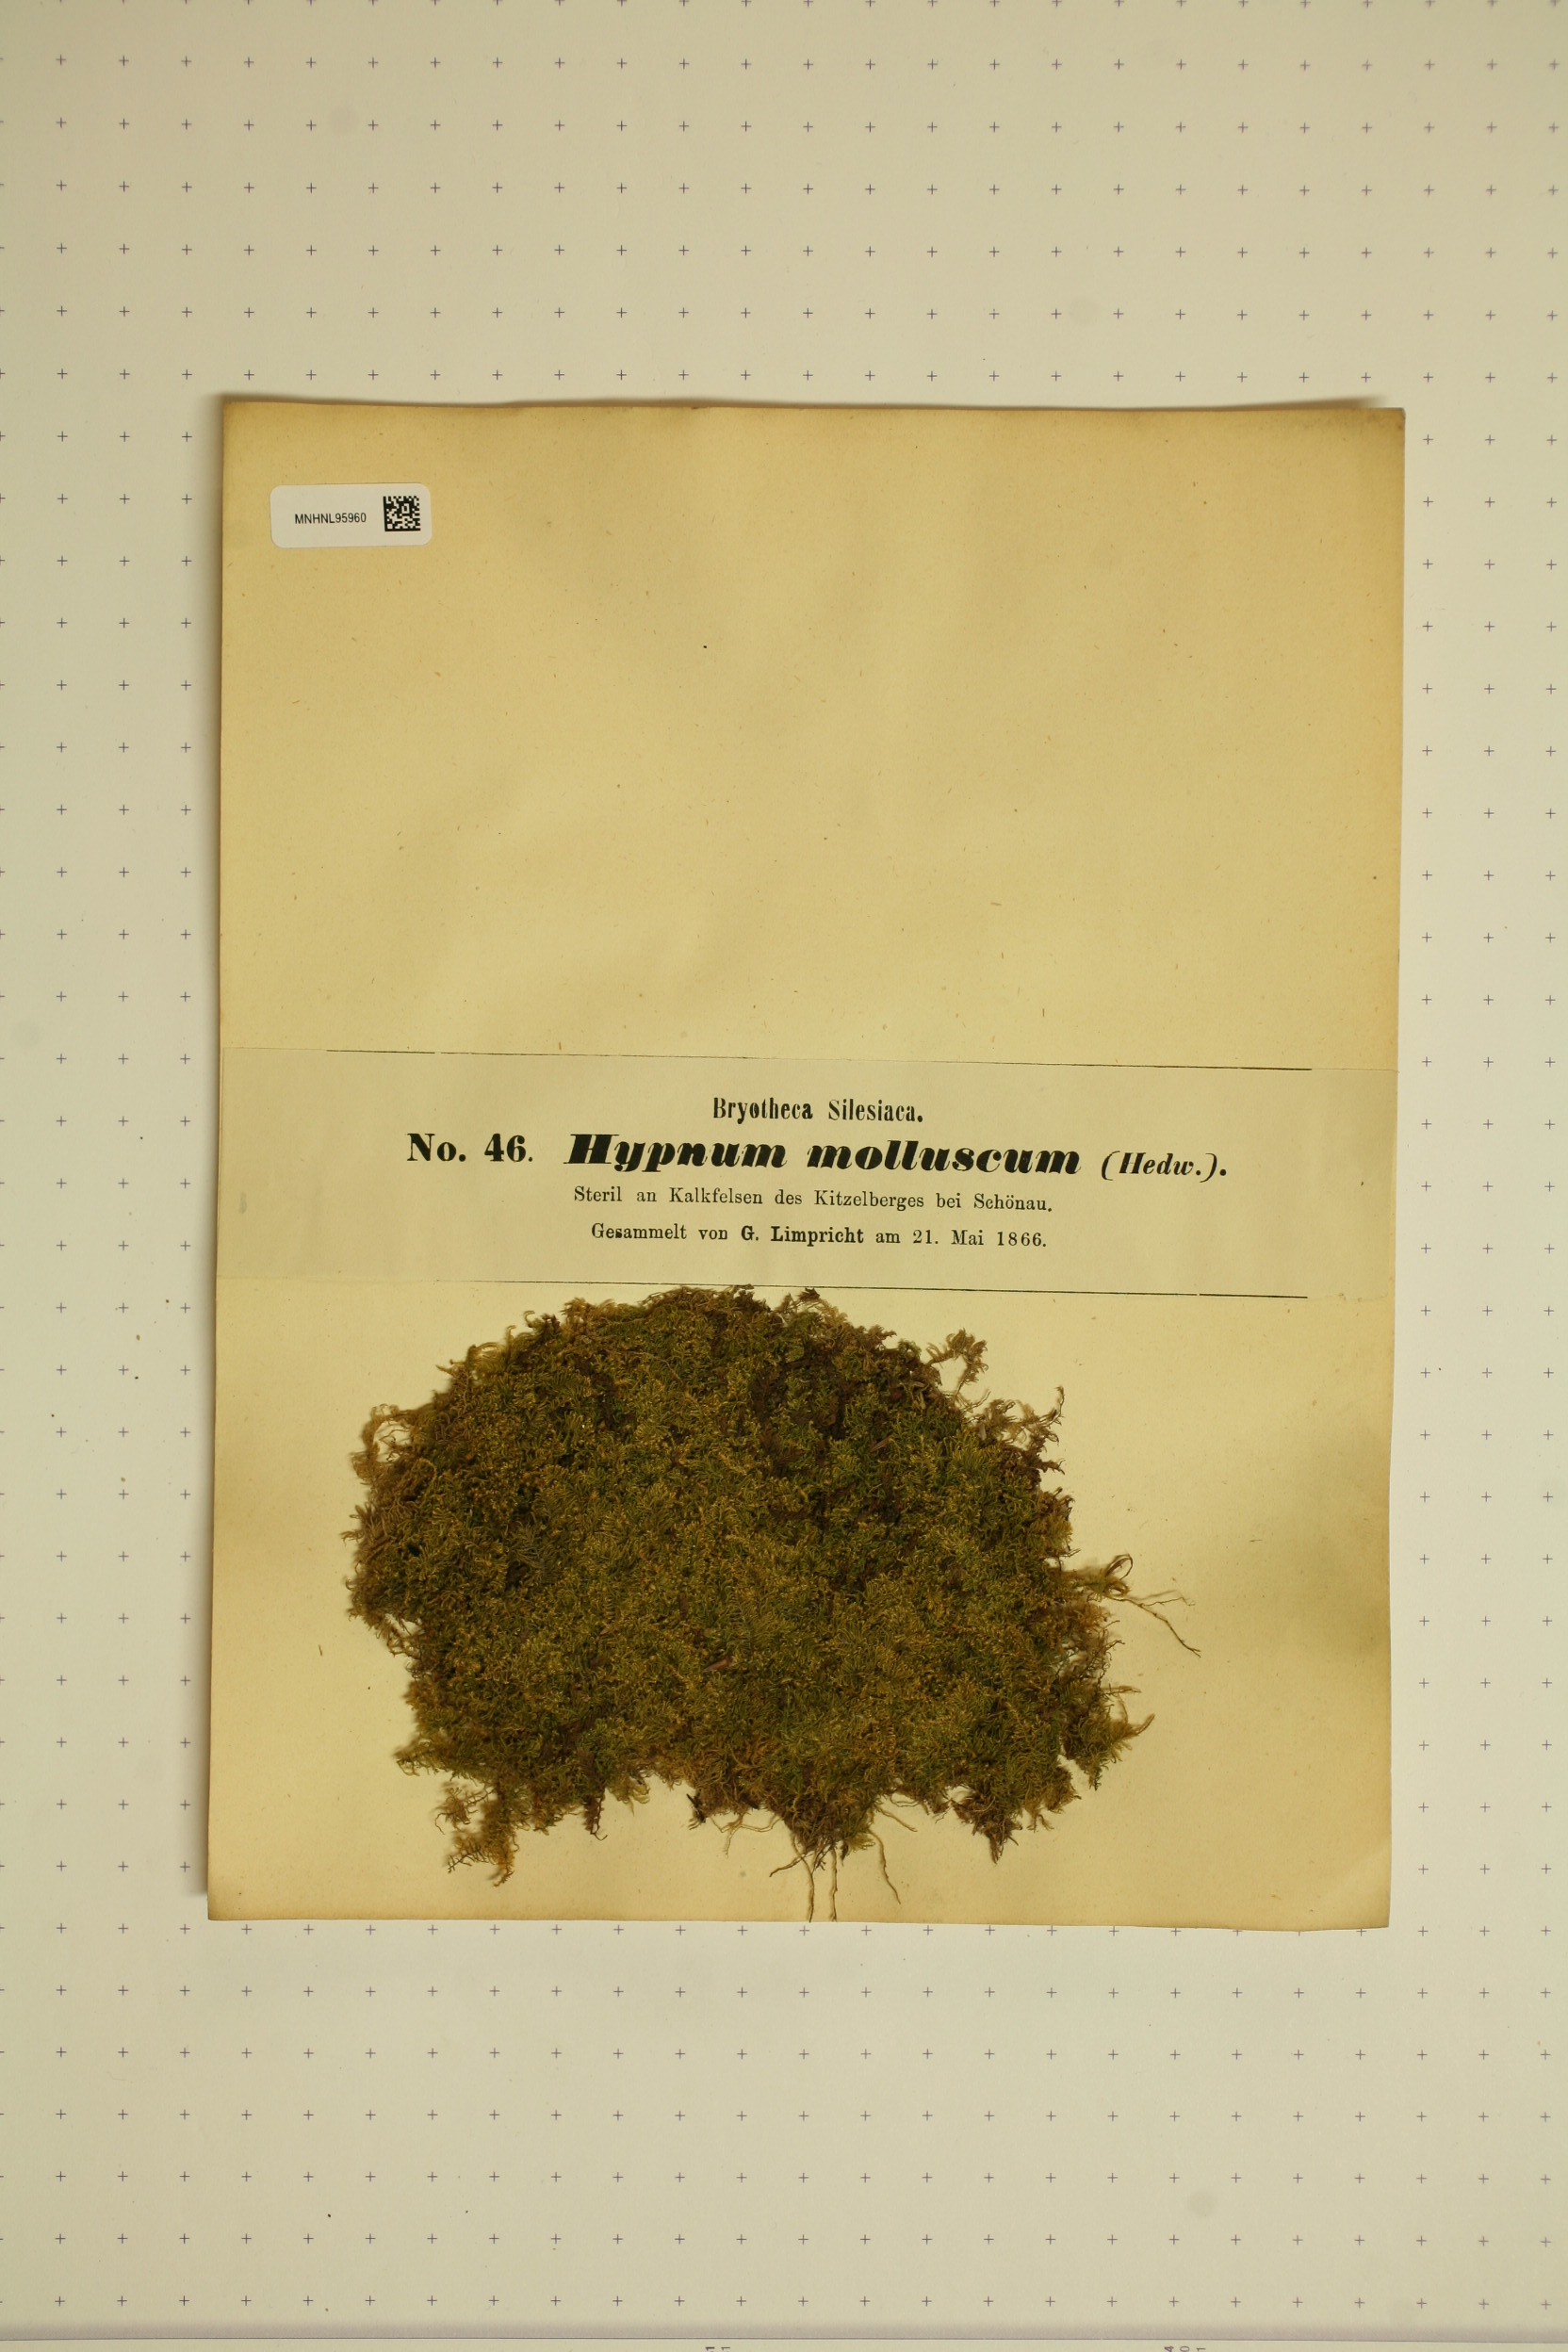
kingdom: Plantae
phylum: Bryophyta
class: Bryopsida
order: Hypnales
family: Myuriaceae
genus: Ctenidium
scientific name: Ctenidium molluscum
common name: Chalk comb-moss
